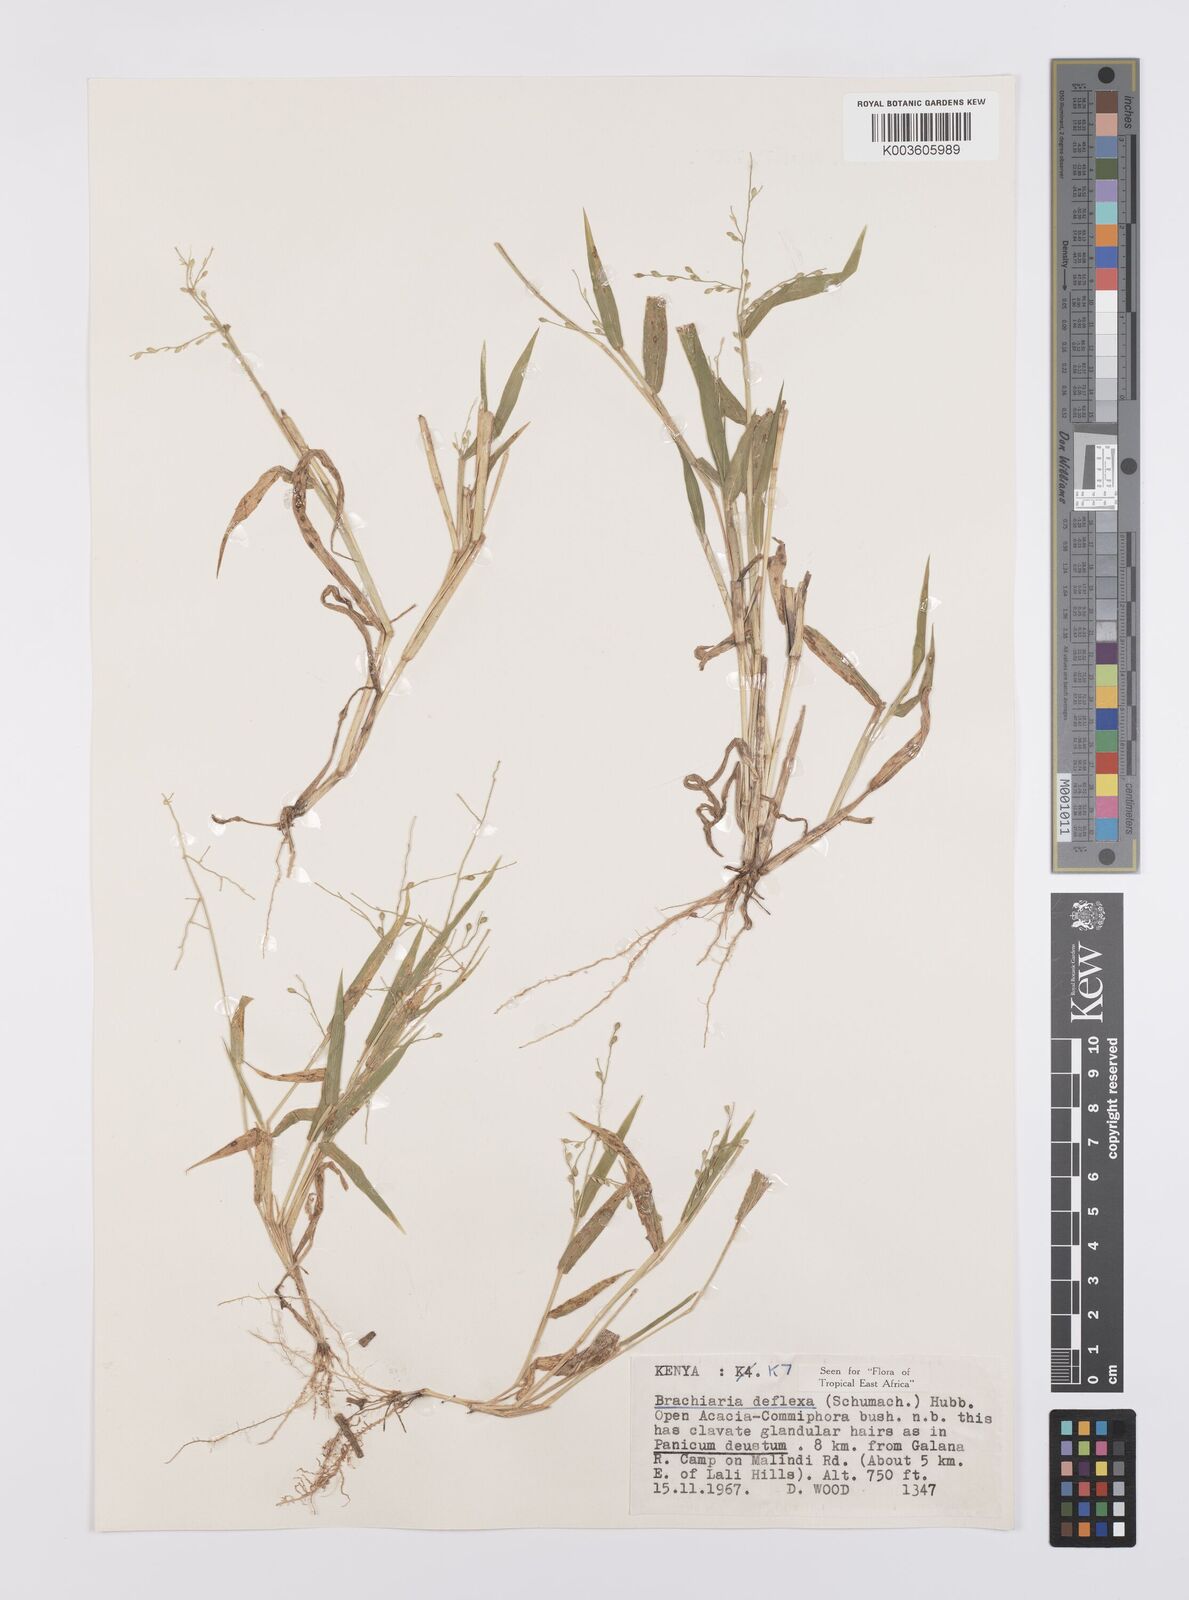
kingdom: Plantae
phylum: Tracheophyta
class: Liliopsida
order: Poales
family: Poaceae
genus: Urochloa
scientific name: Urochloa deflexa
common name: Guinea millet
